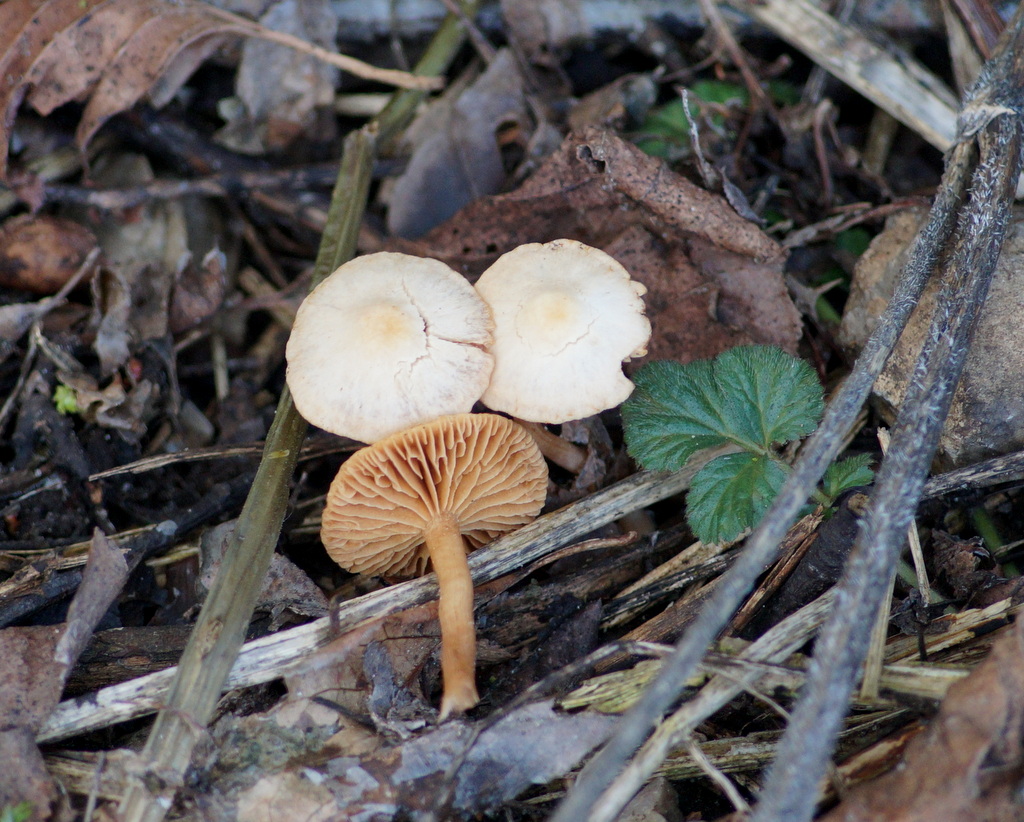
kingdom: Fungi
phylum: Basidiomycota
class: Agaricomycetes
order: Agaricales
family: Tubariaceae
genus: Tubaria
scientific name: Tubaria furfuracea
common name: kliddet fnughat
